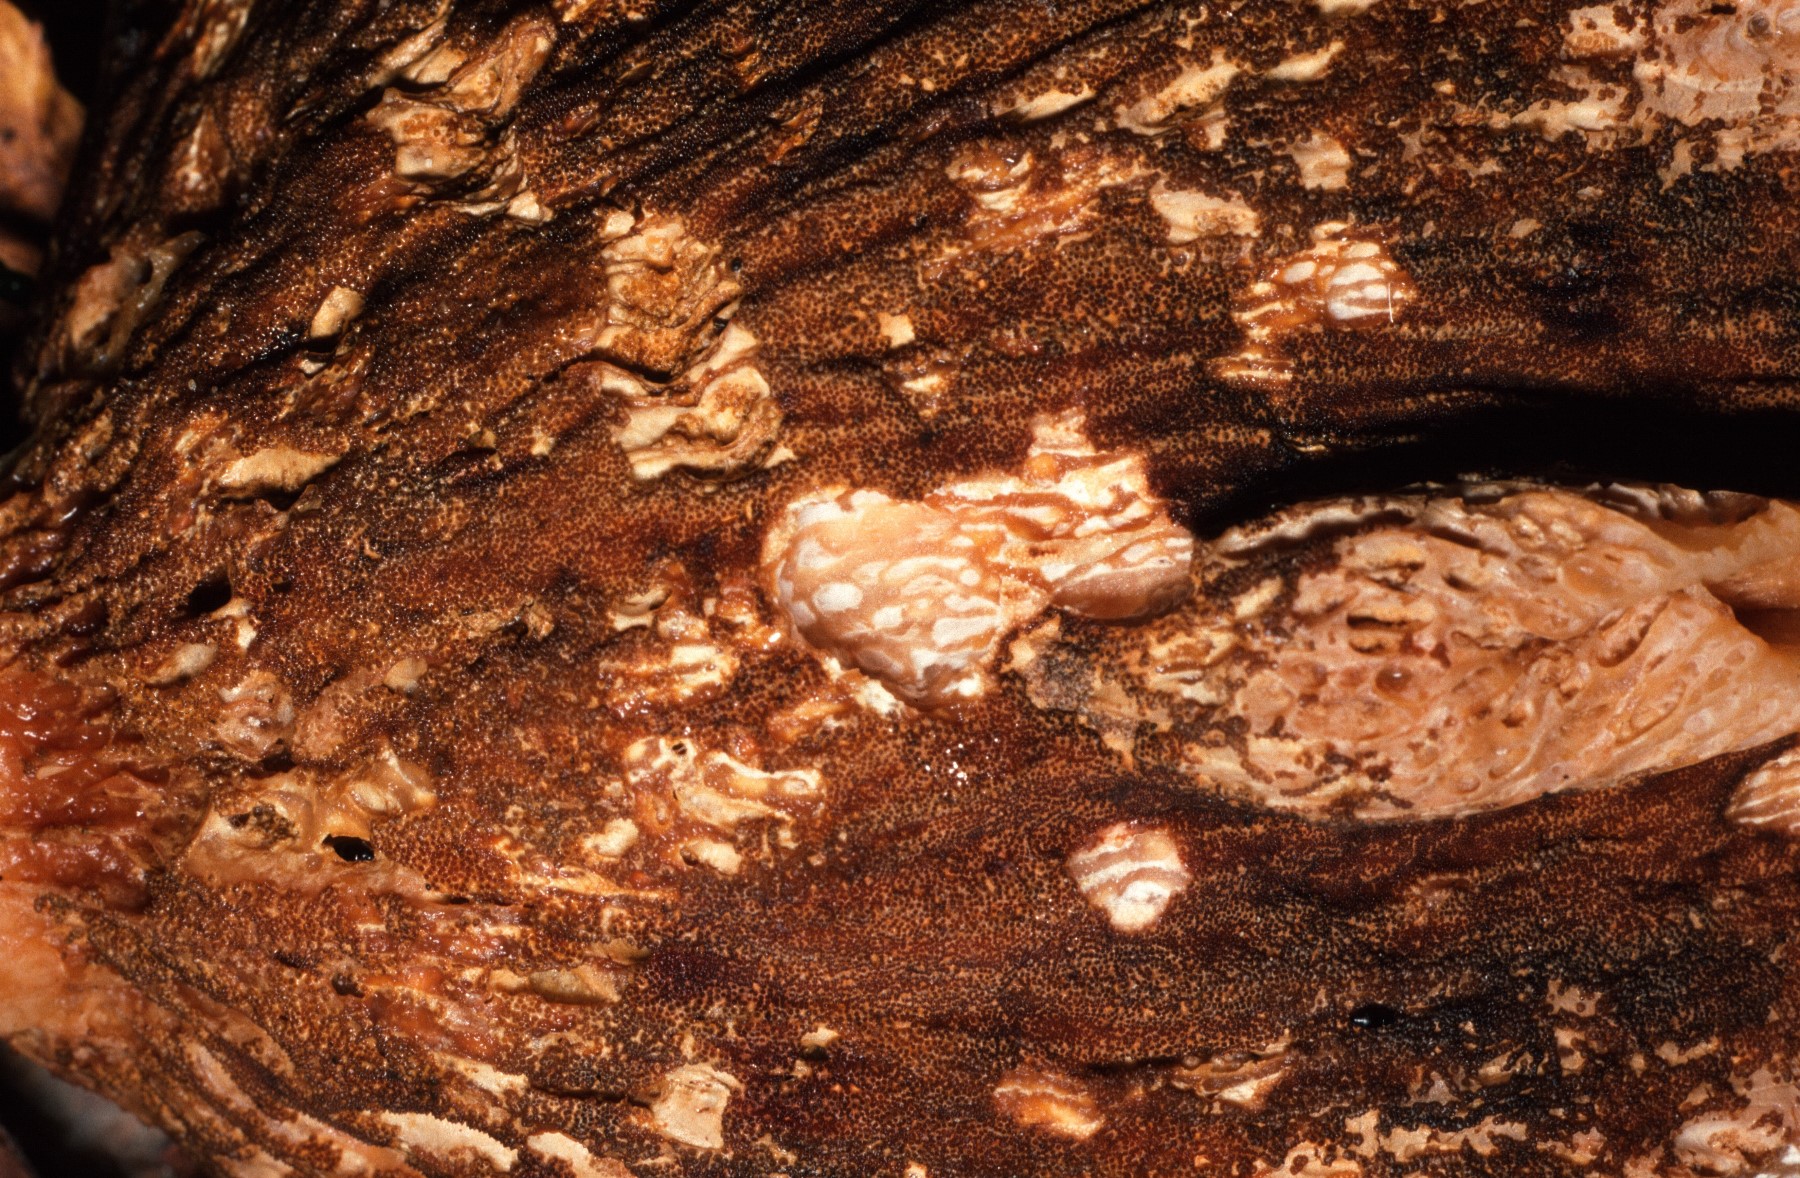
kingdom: Fungi
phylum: Ascomycota
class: Sordariomycetes
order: Hypocreales
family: Hypocreaceae
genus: Hypomyces
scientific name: Hypomyces lateritius
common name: mælkehat-snylteskorpe
